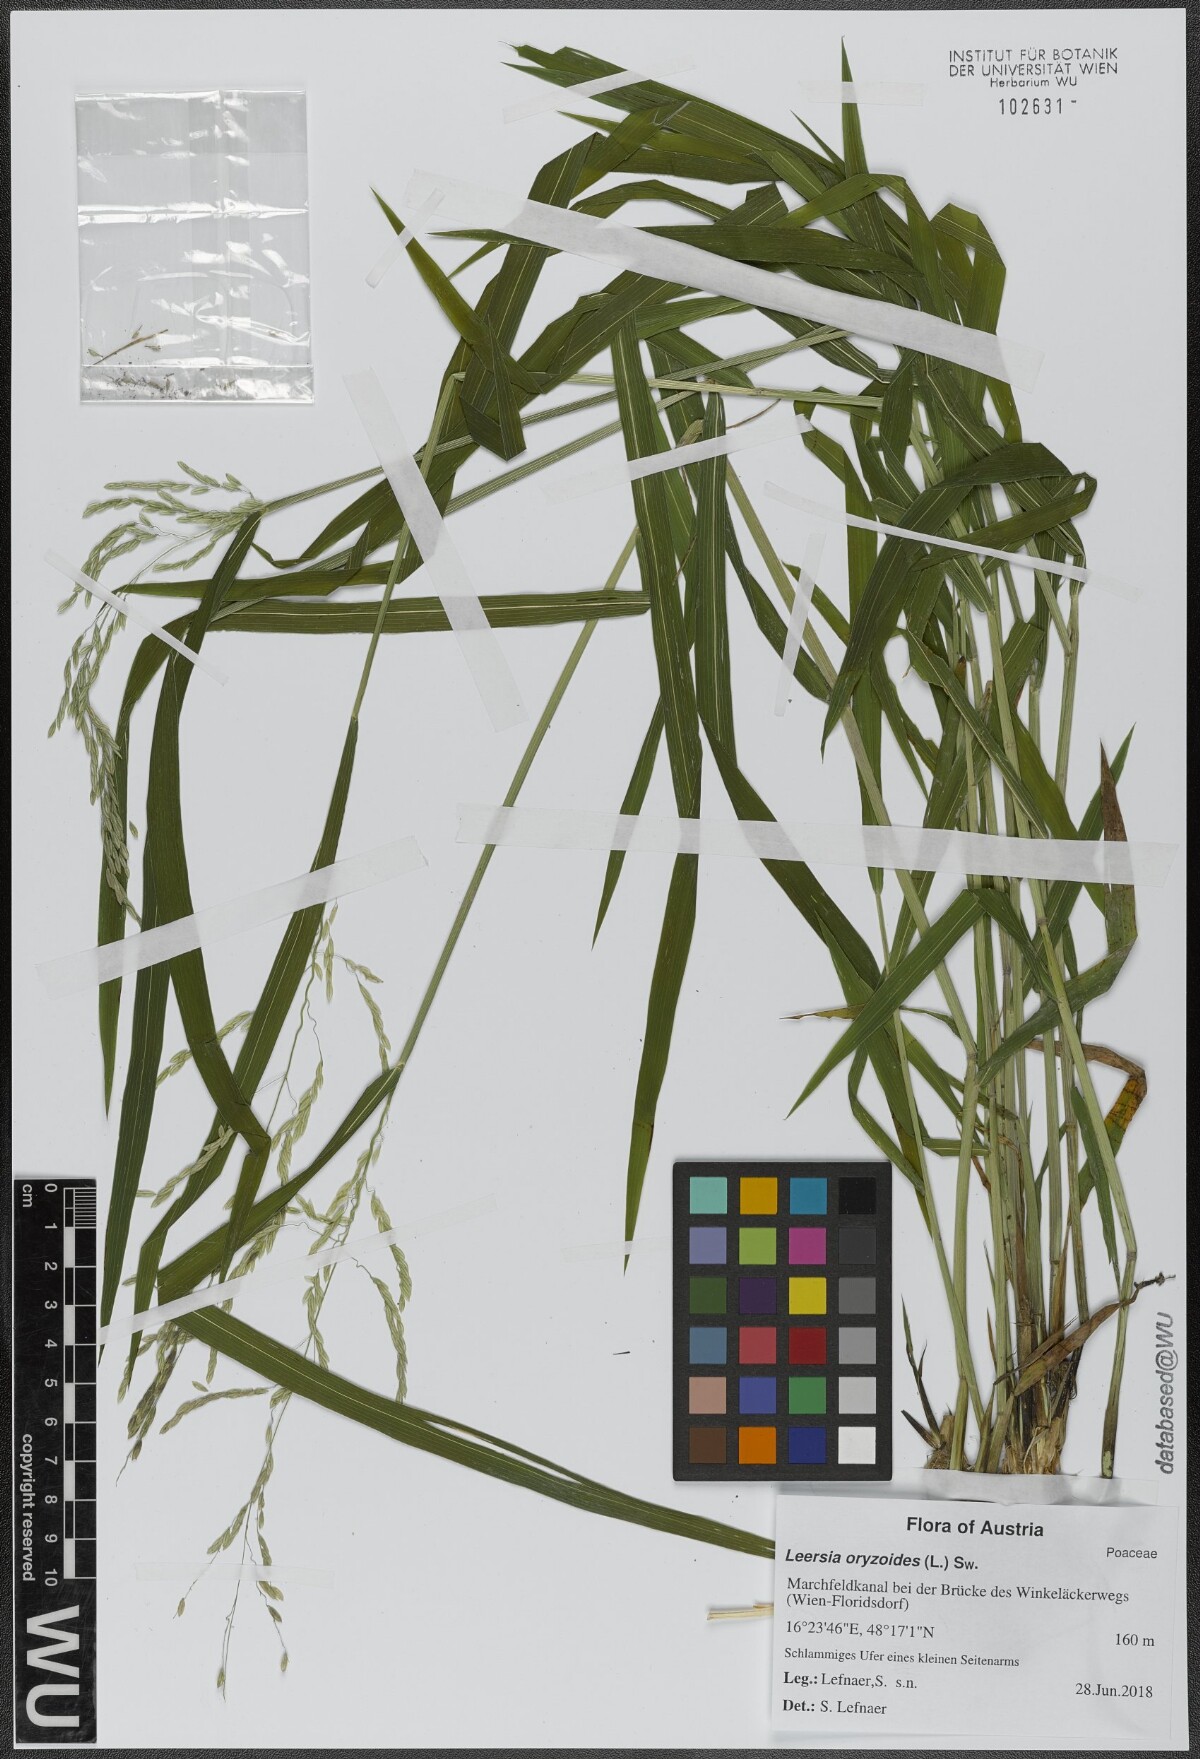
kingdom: Plantae
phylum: Tracheophyta
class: Liliopsida
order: Poales
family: Poaceae
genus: Leersia
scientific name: Leersia oryzoides
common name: Cut-grass
